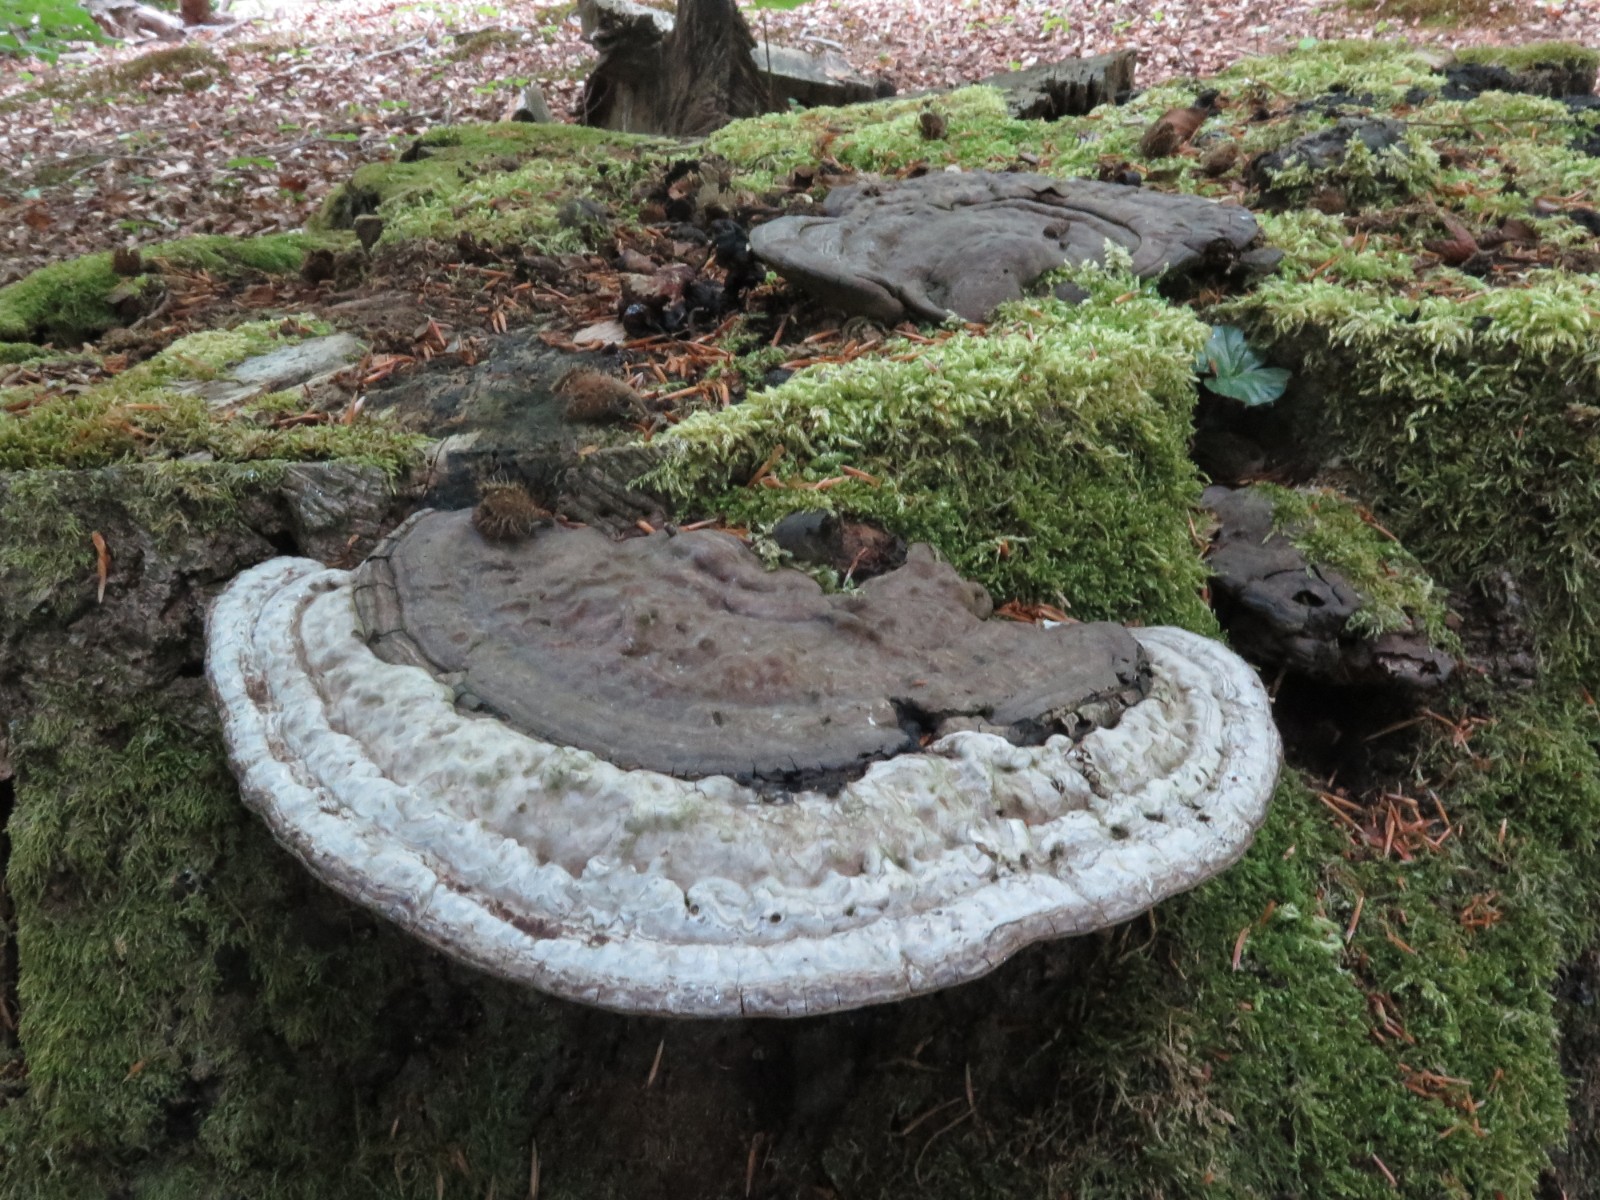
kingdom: Fungi
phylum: Basidiomycota
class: Agaricomycetes
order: Polyporales
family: Polyporaceae
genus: Ganoderma
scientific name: Ganoderma applanatum
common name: flad lakporesvamp
